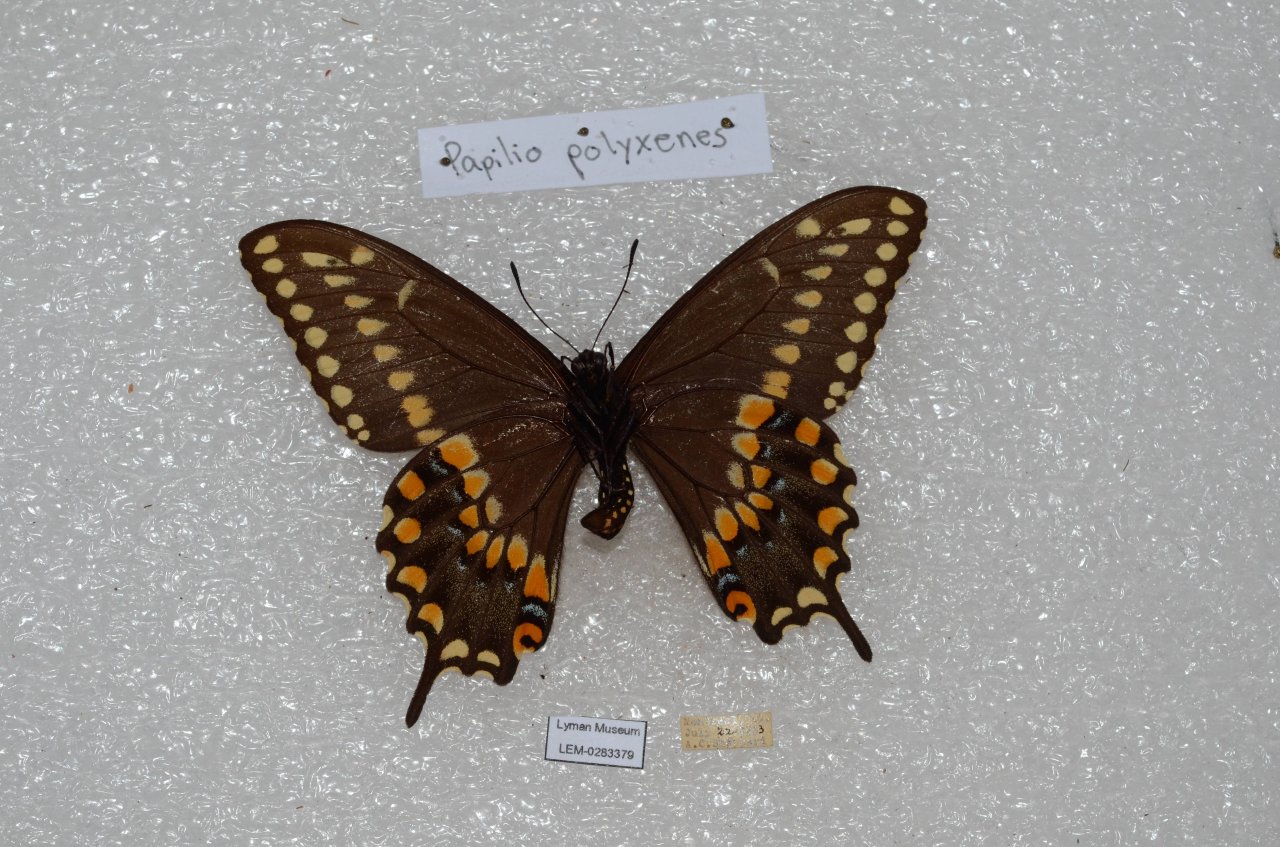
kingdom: Animalia
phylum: Arthropoda
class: Insecta
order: Lepidoptera
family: Papilionidae
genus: Papilio
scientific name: Papilio polyxenes
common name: Black Swallowtail
